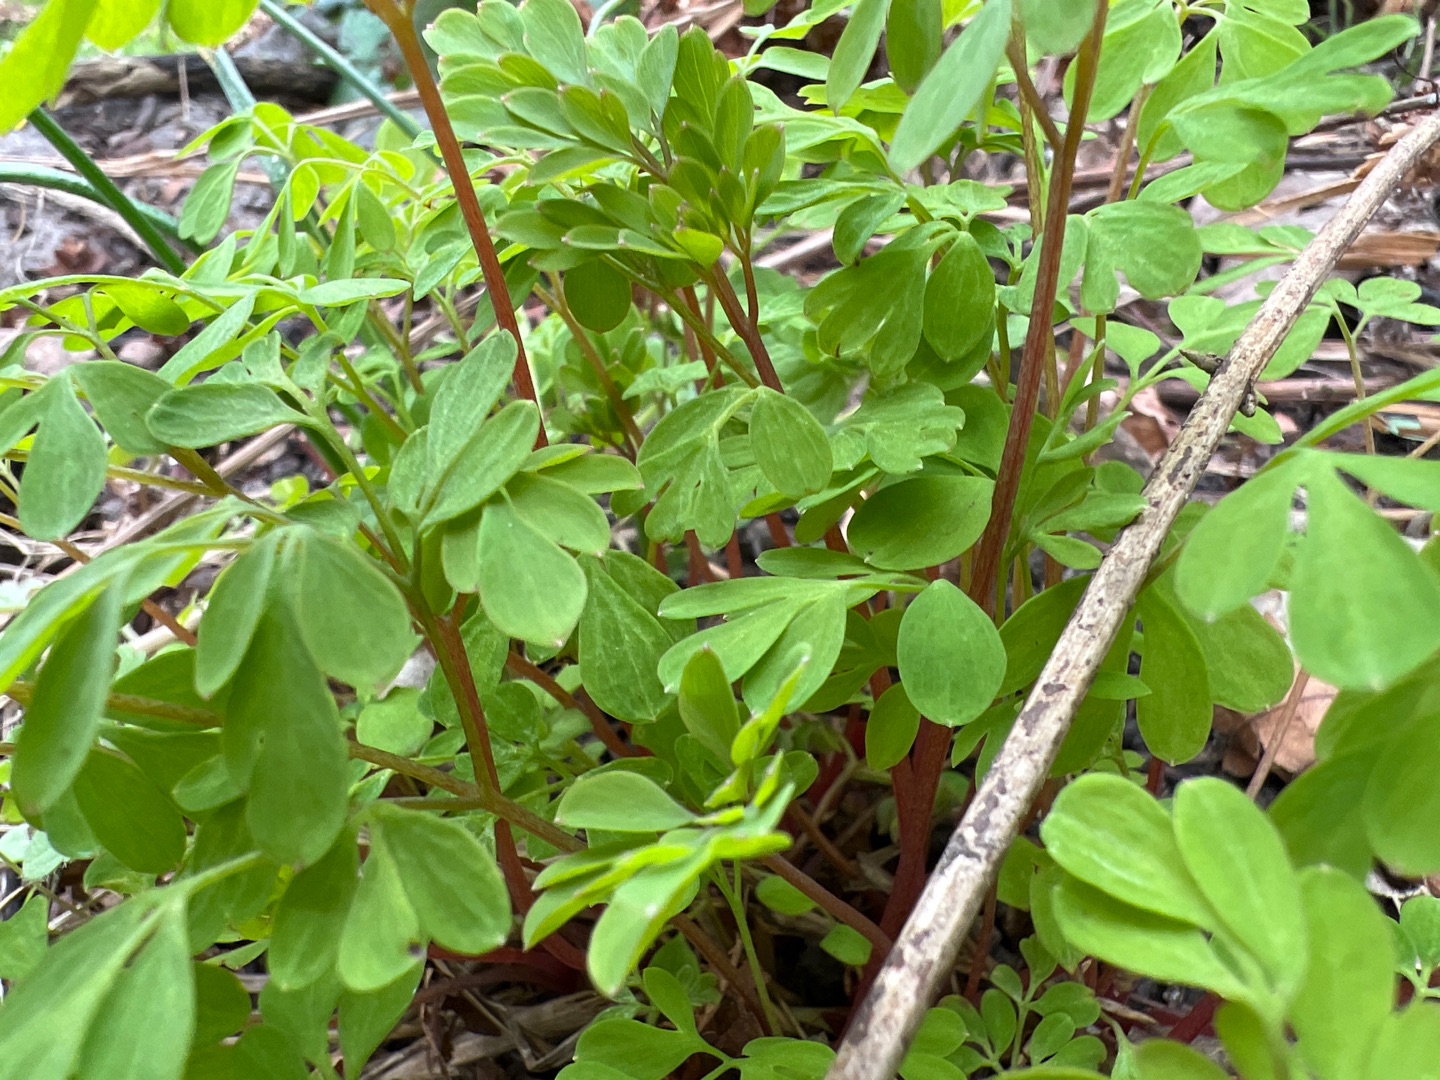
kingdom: Plantae
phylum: Tracheophyta
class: Magnoliopsida
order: Ranunculales
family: Papaveraceae
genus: Pseudofumaria
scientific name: Pseudofumaria lutea
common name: Gul lærkespore
